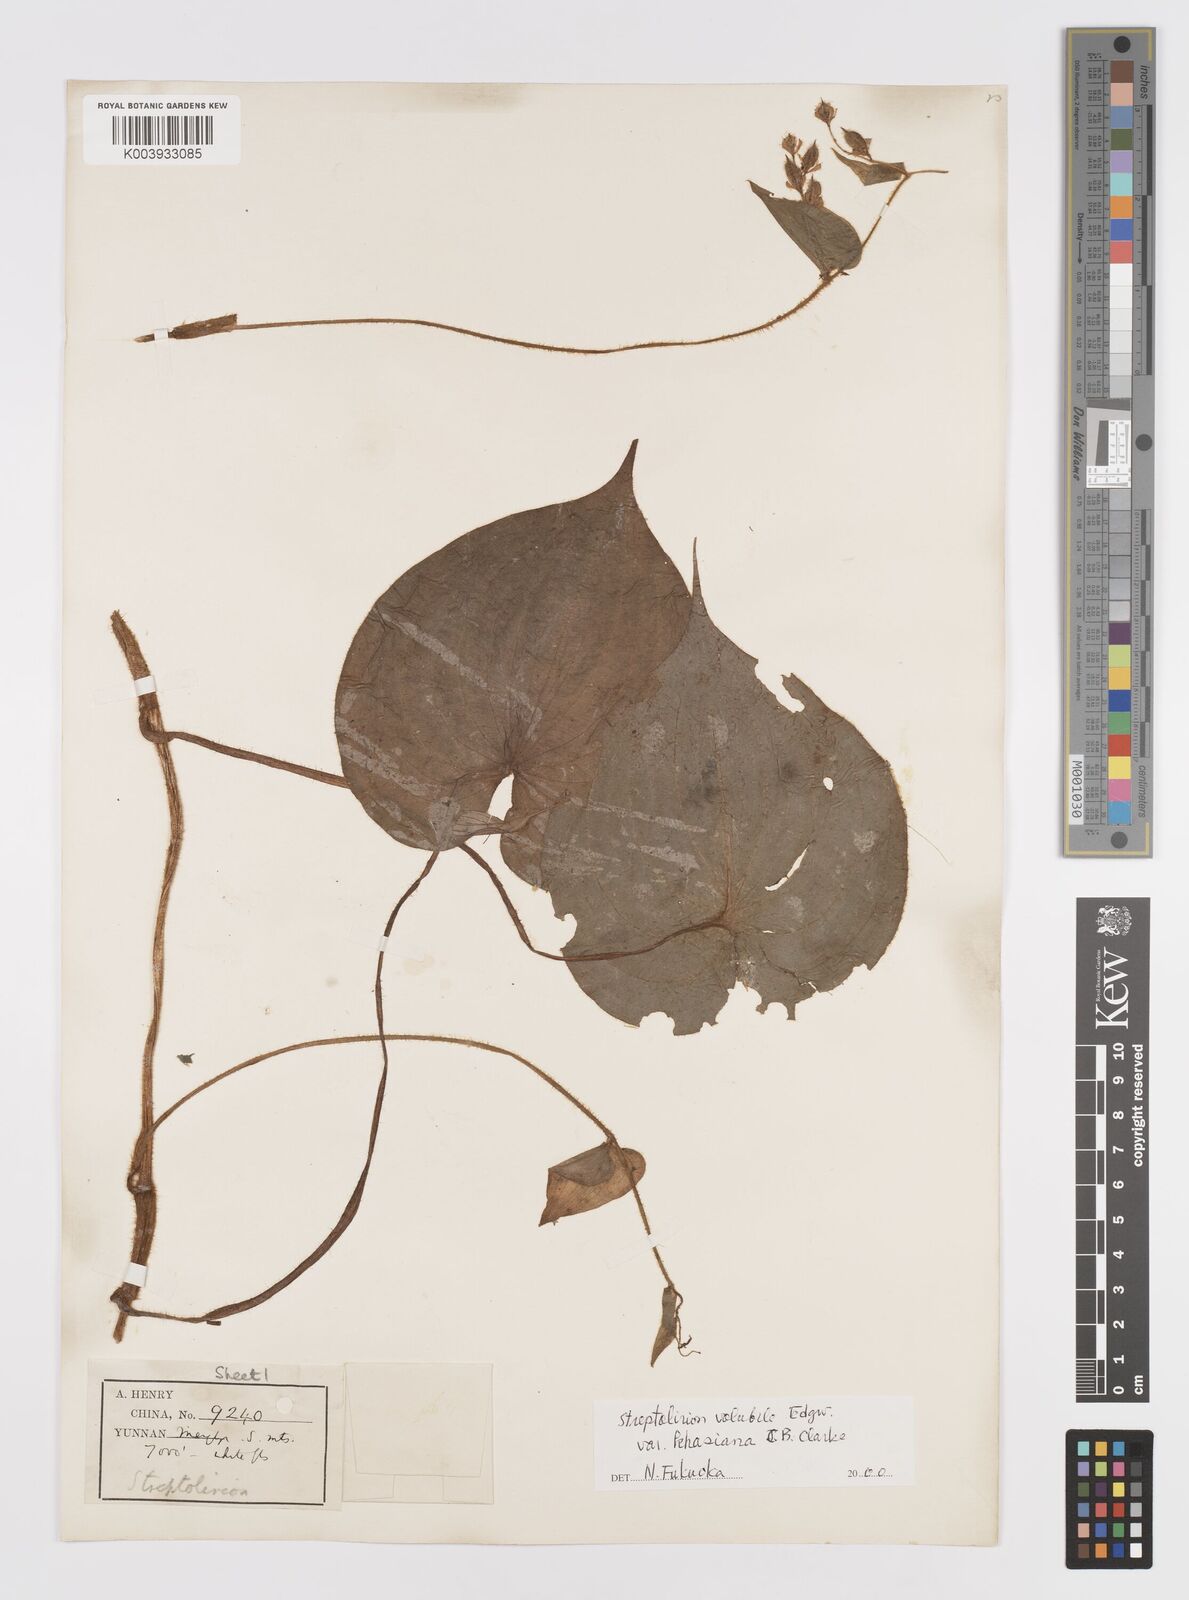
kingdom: Plantae
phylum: Tracheophyta
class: Liliopsida
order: Commelinales
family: Commelinaceae
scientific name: Commelinaceae
